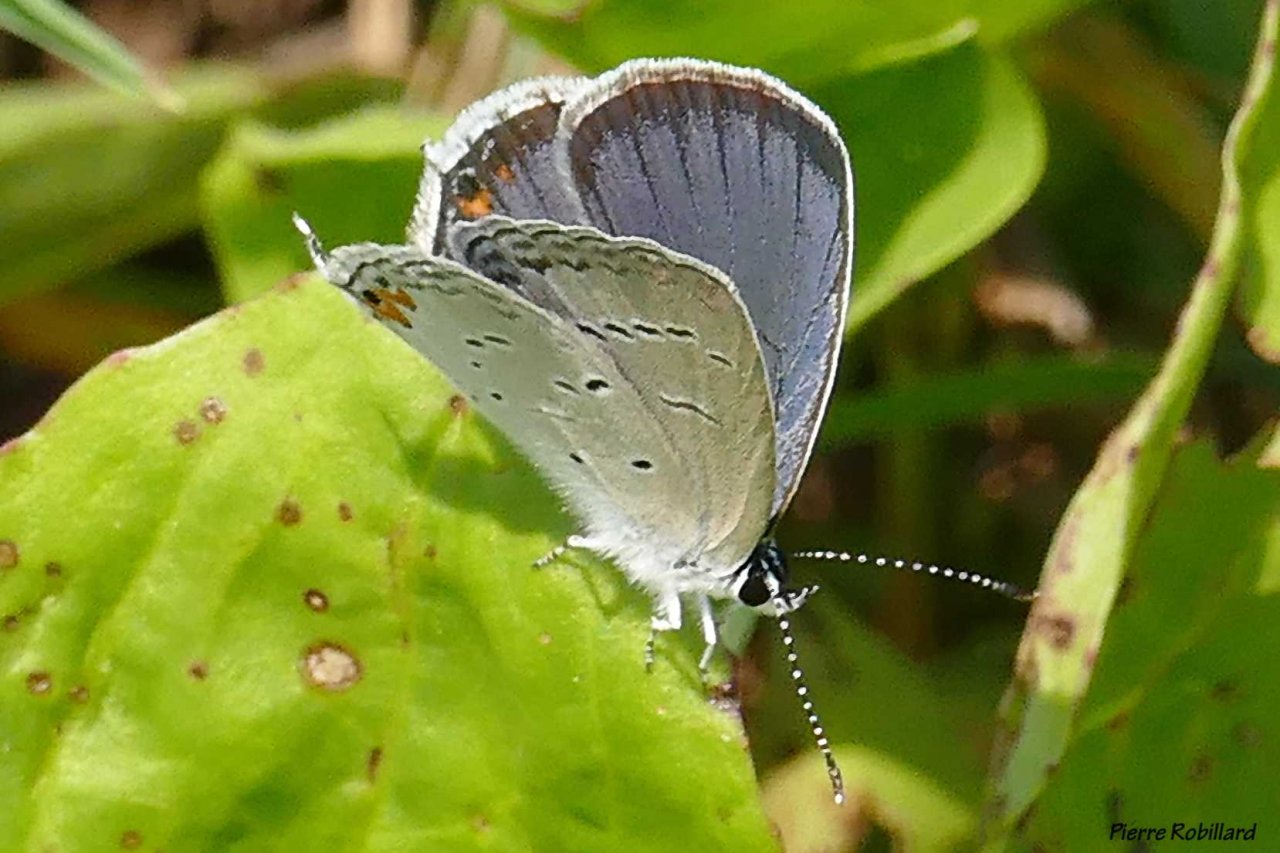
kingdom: Animalia
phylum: Arthropoda
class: Insecta
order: Lepidoptera
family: Lycaenidae
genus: Elkalyce
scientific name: Elkalyce comyntas
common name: Eastern Tailed-Blue
